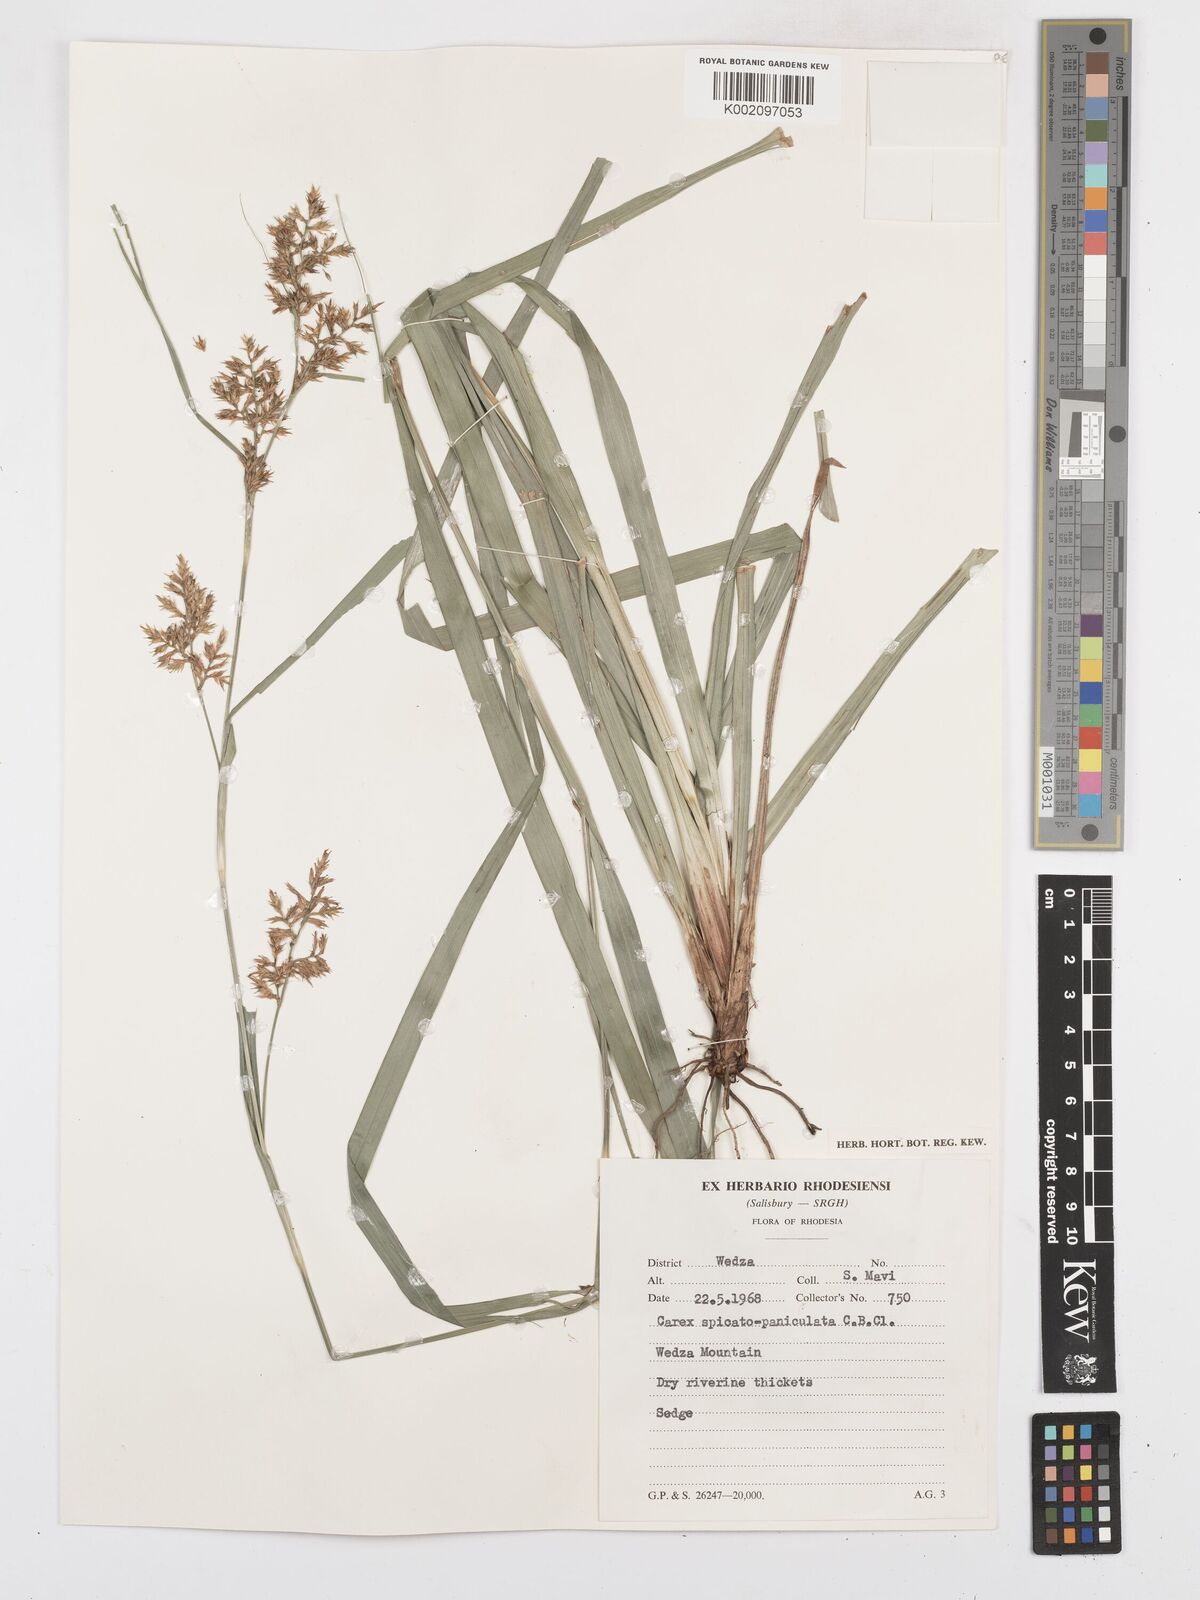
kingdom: Plantae
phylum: Tracheophyta
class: Liliopsida
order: Poales
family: Cyperaceae
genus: Carex
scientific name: Carex spicatopaniculata
